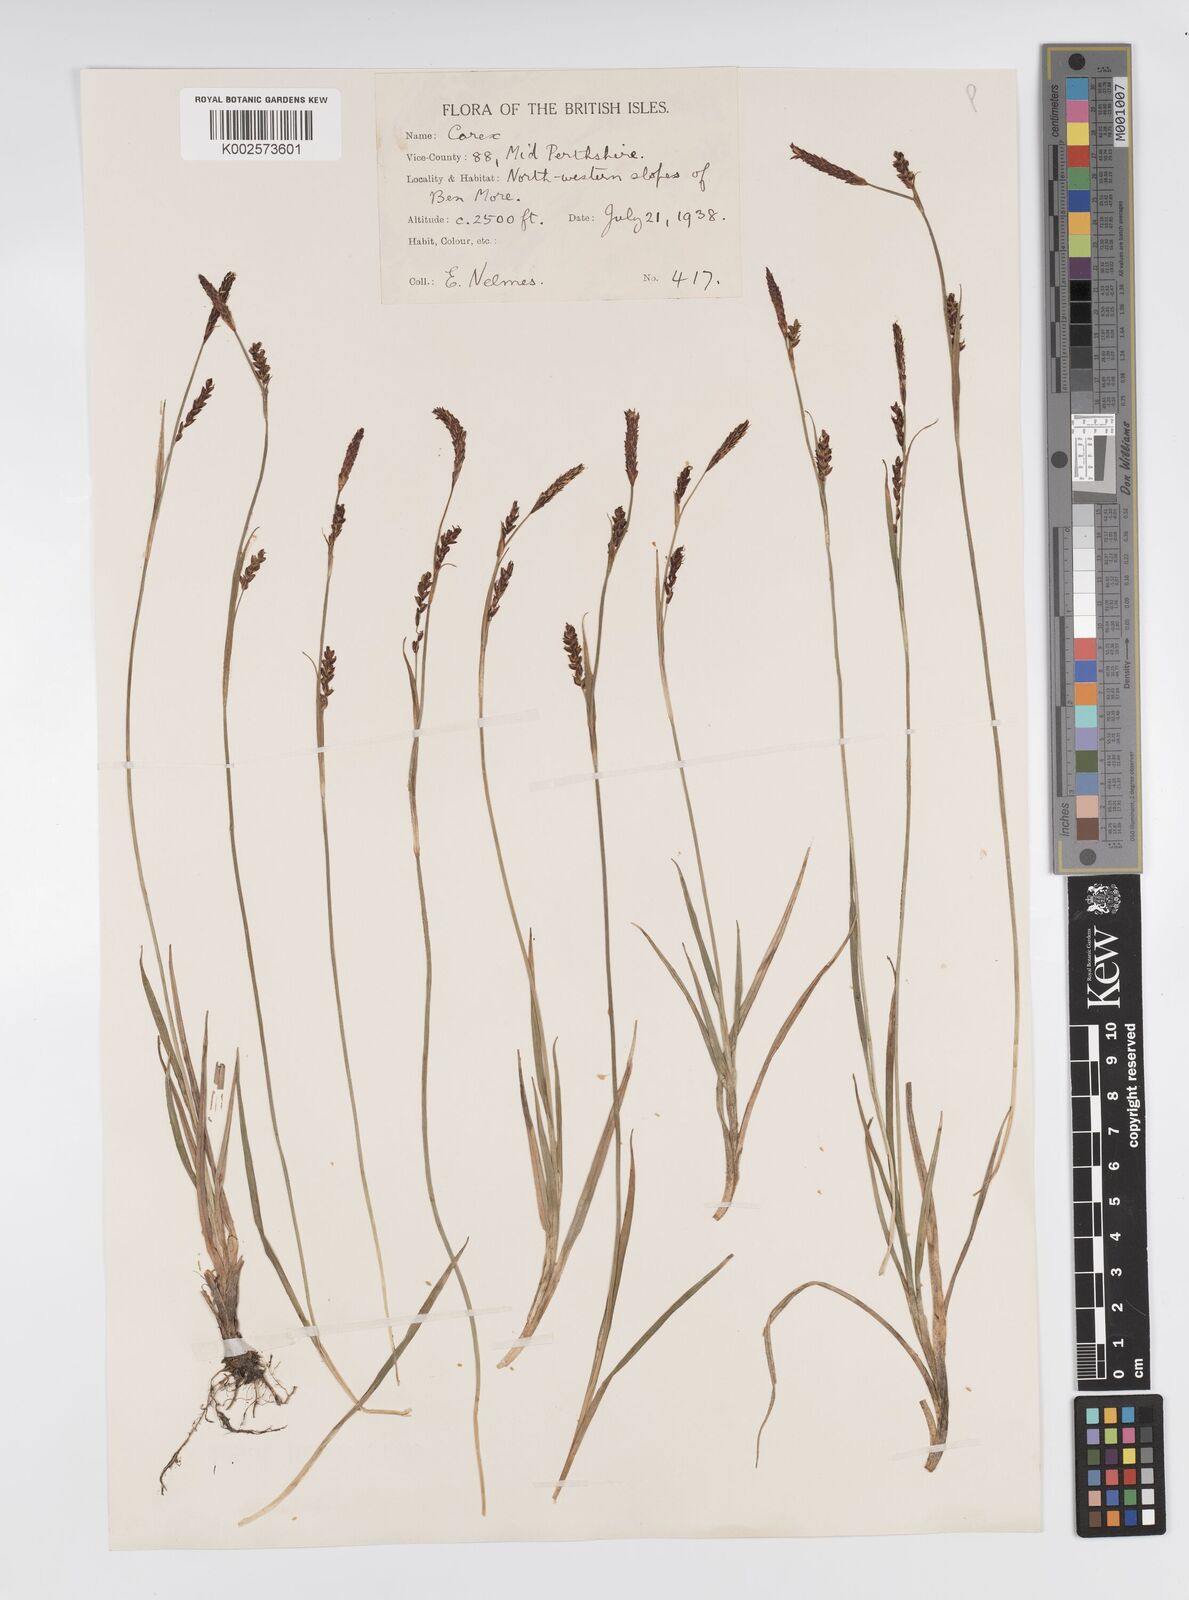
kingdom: Plantae
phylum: Tracheophyta
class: Liliopsida
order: Poales
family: Cyperaceae
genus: Carex
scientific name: Carex panicea
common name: Carnation sedge
